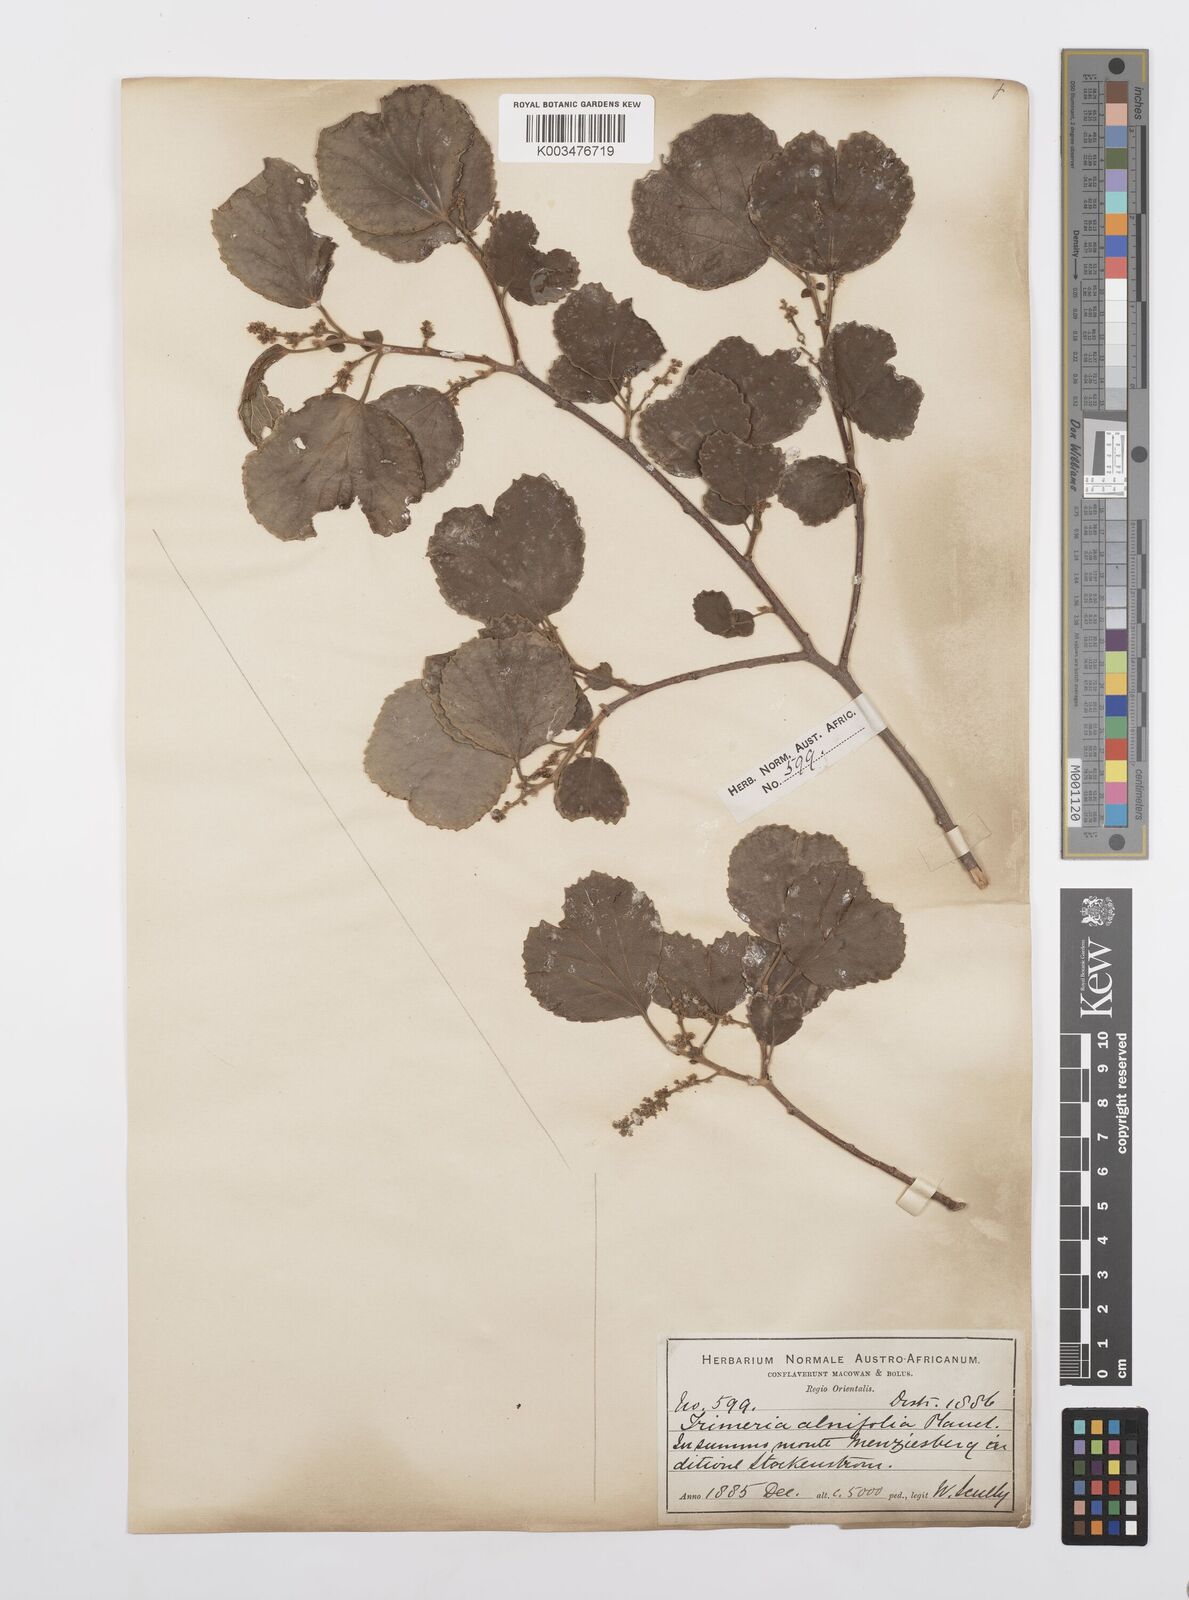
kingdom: Plantae
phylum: Tracheophyta
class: Magnoliopsida
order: Malpighiales
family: Salicaceae
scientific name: Salicaceae
